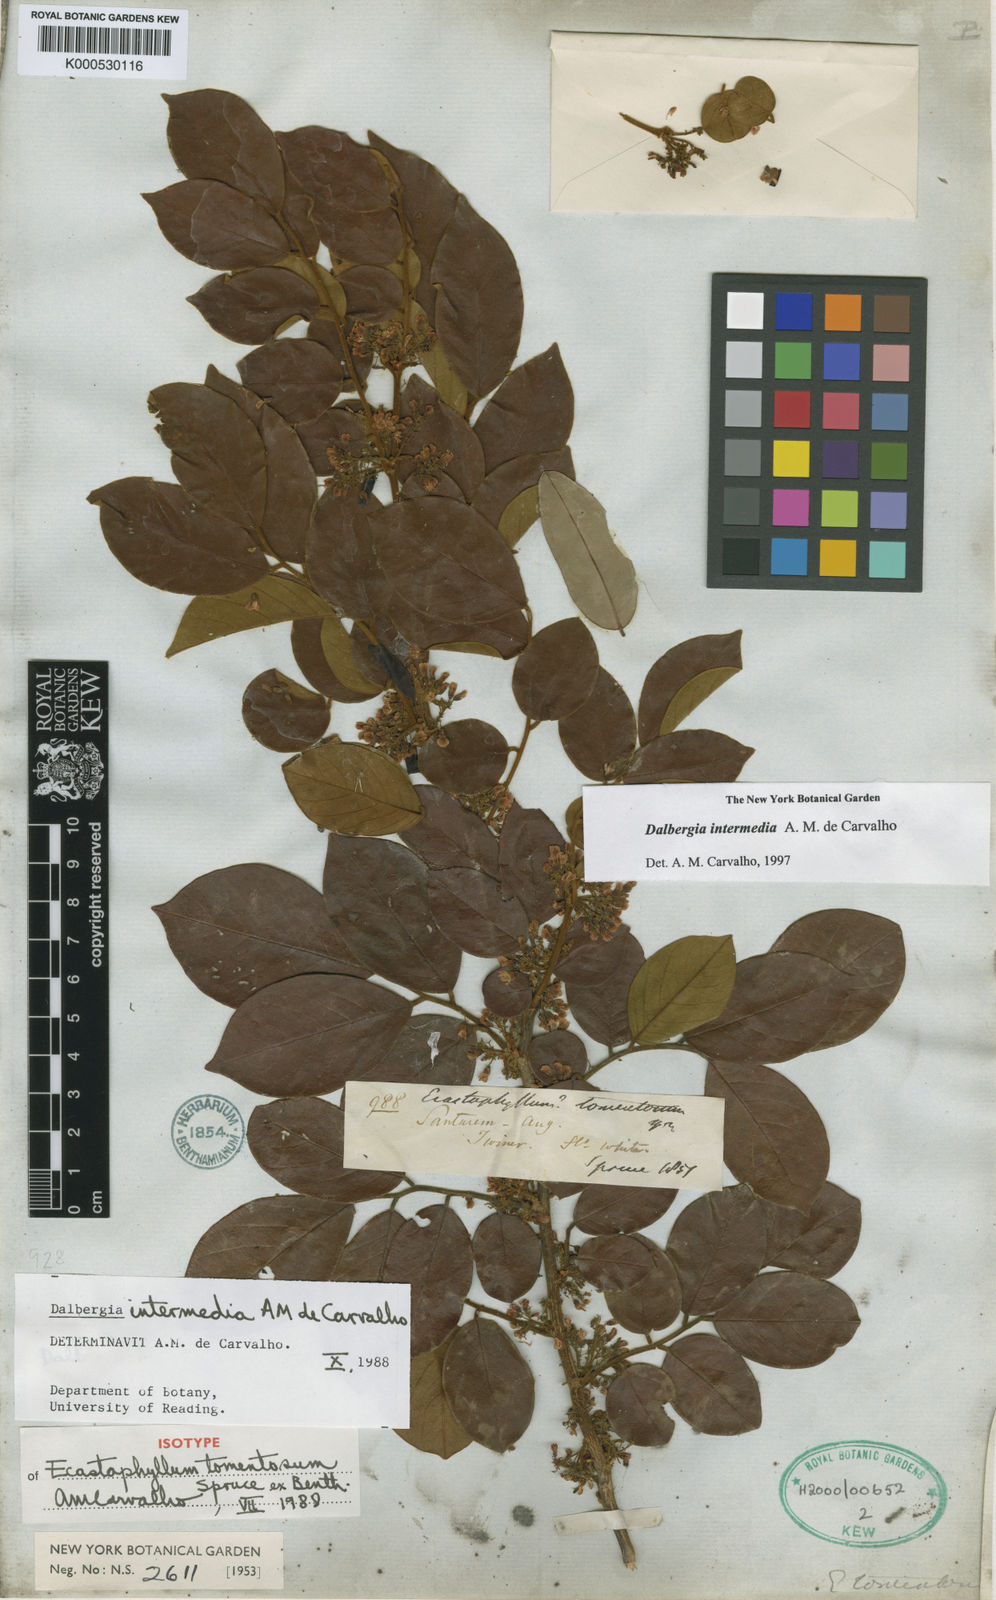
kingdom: Plantae
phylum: Tracheophyta
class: Magnoliopsida
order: Fabales
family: Fabaceae
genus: Dalbergia
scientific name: Dalbergia intermedia
